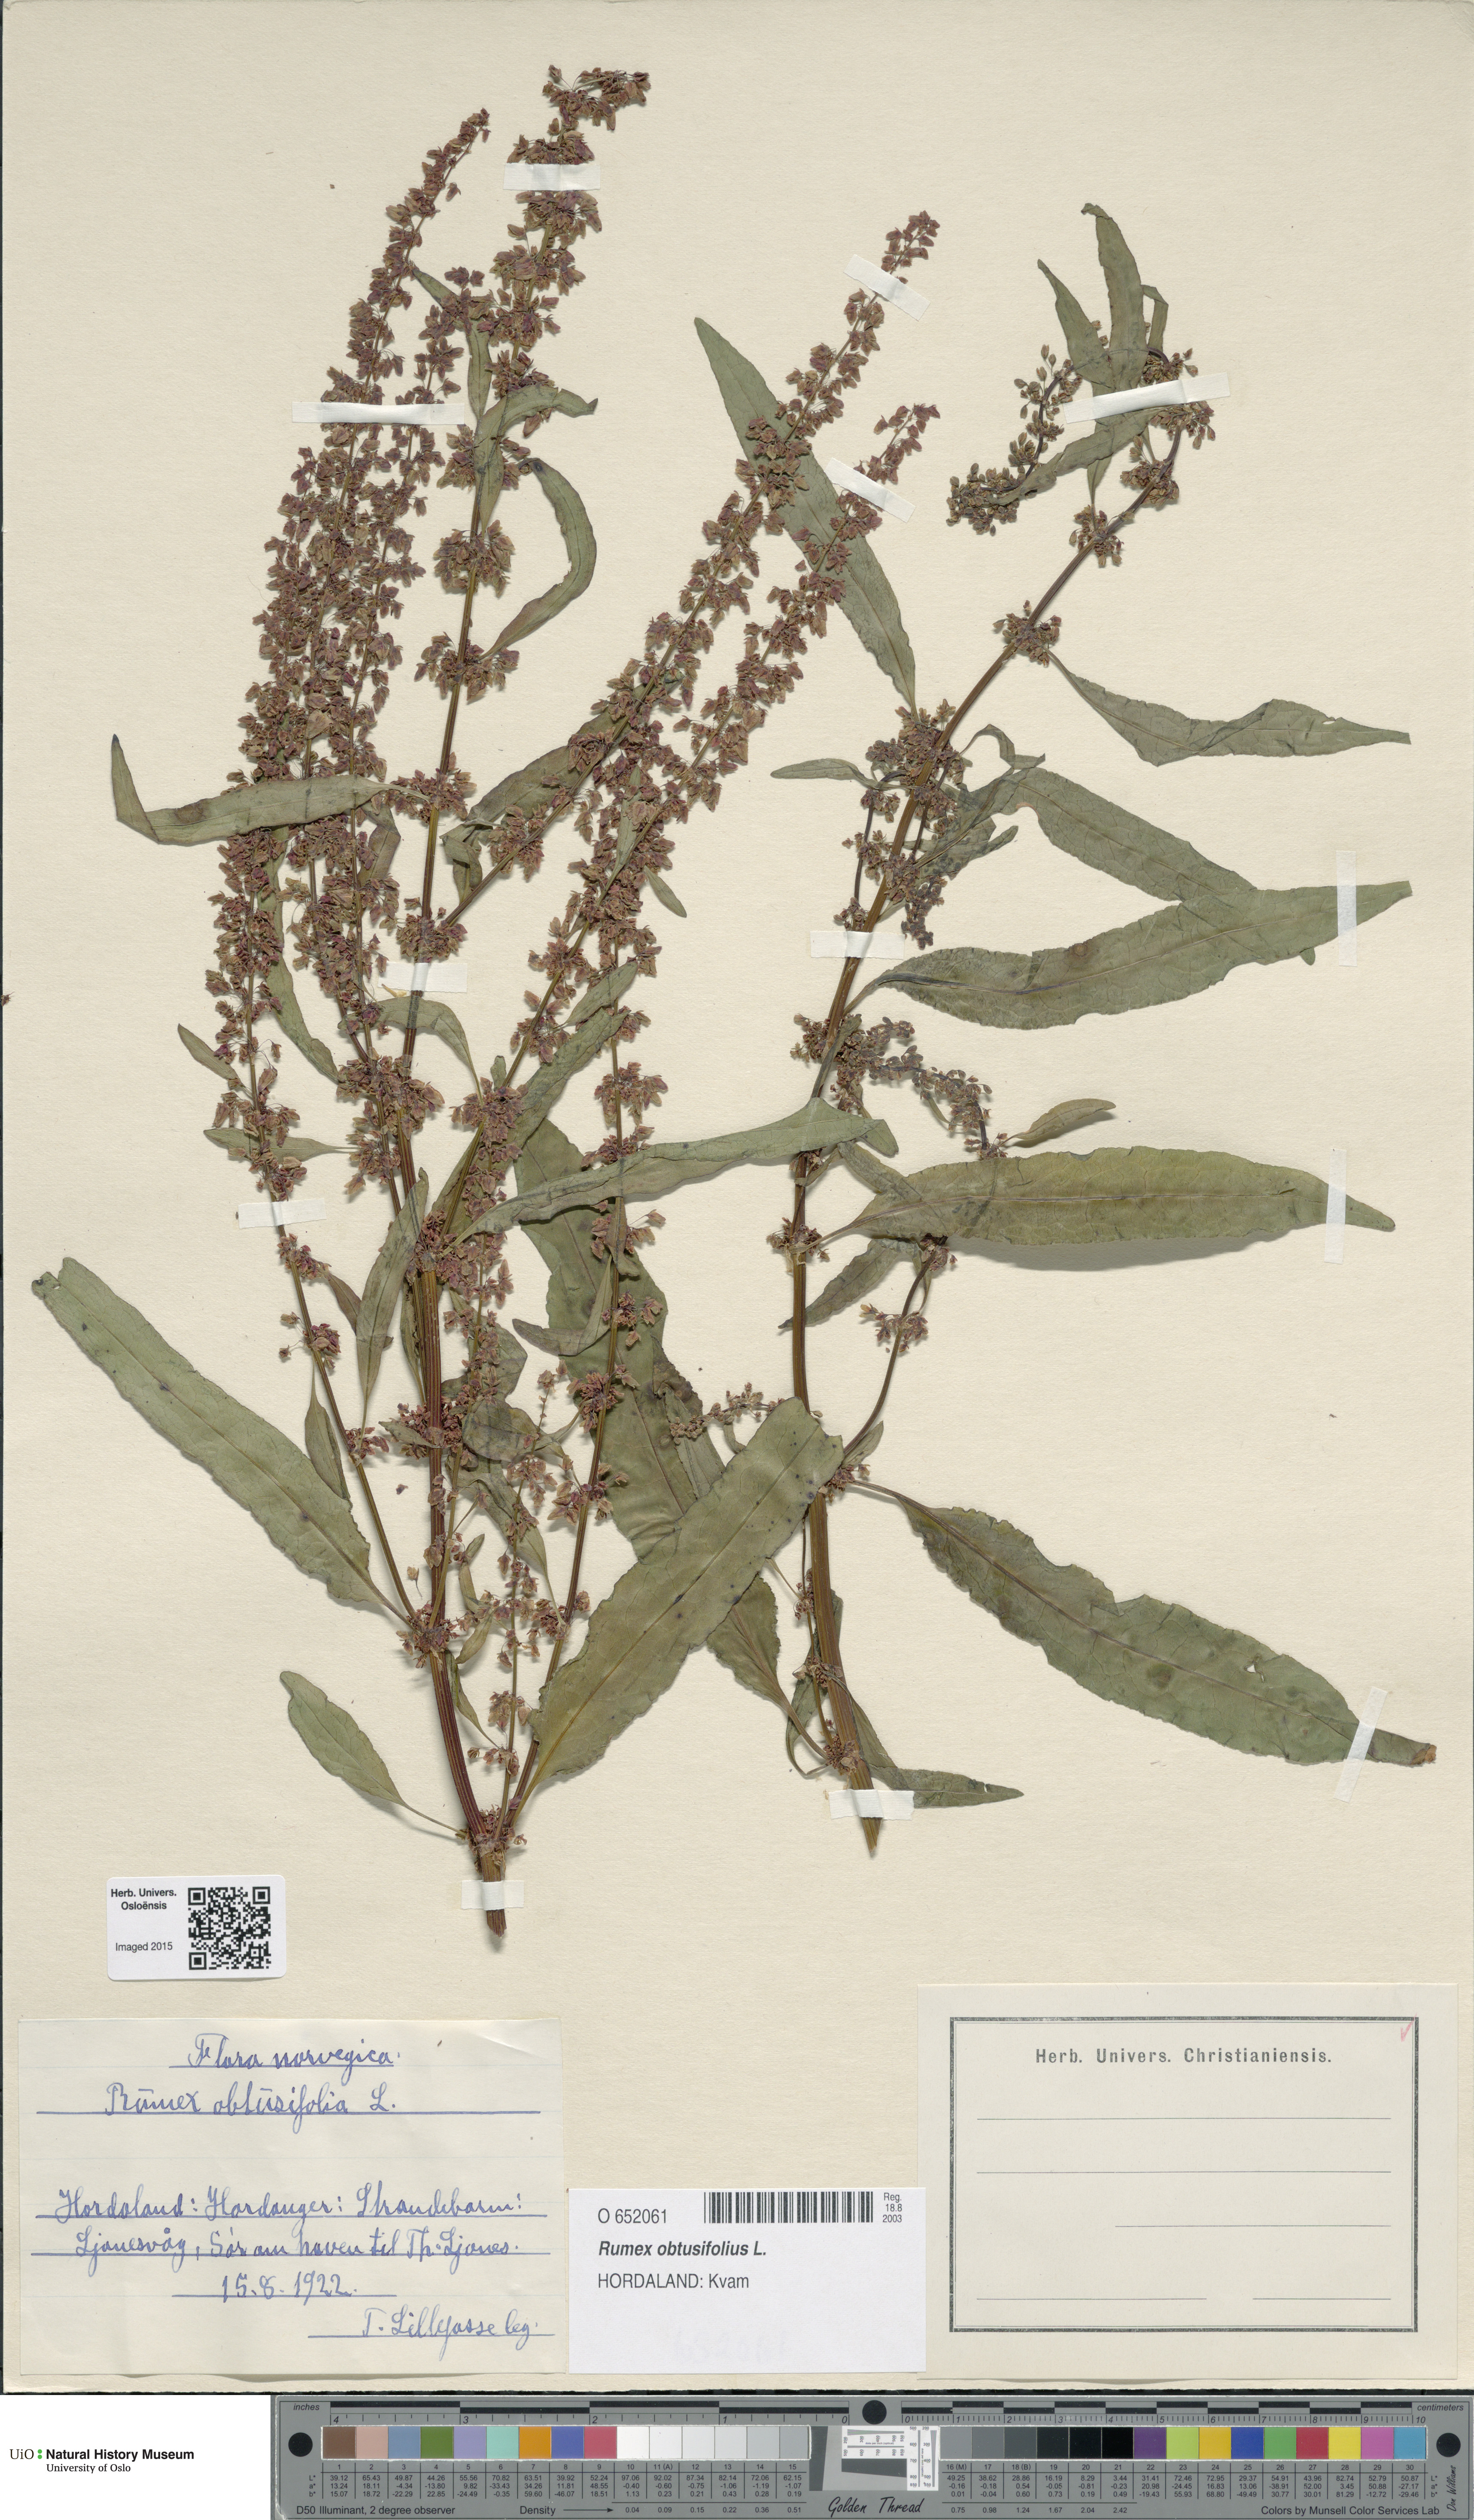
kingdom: Plantae
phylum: Tracheophyta
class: Magnoliopsida
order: Caryophyllales
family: Polygonaceae
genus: Rumex
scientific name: Rumex obtusifolius
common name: Bitter dock
